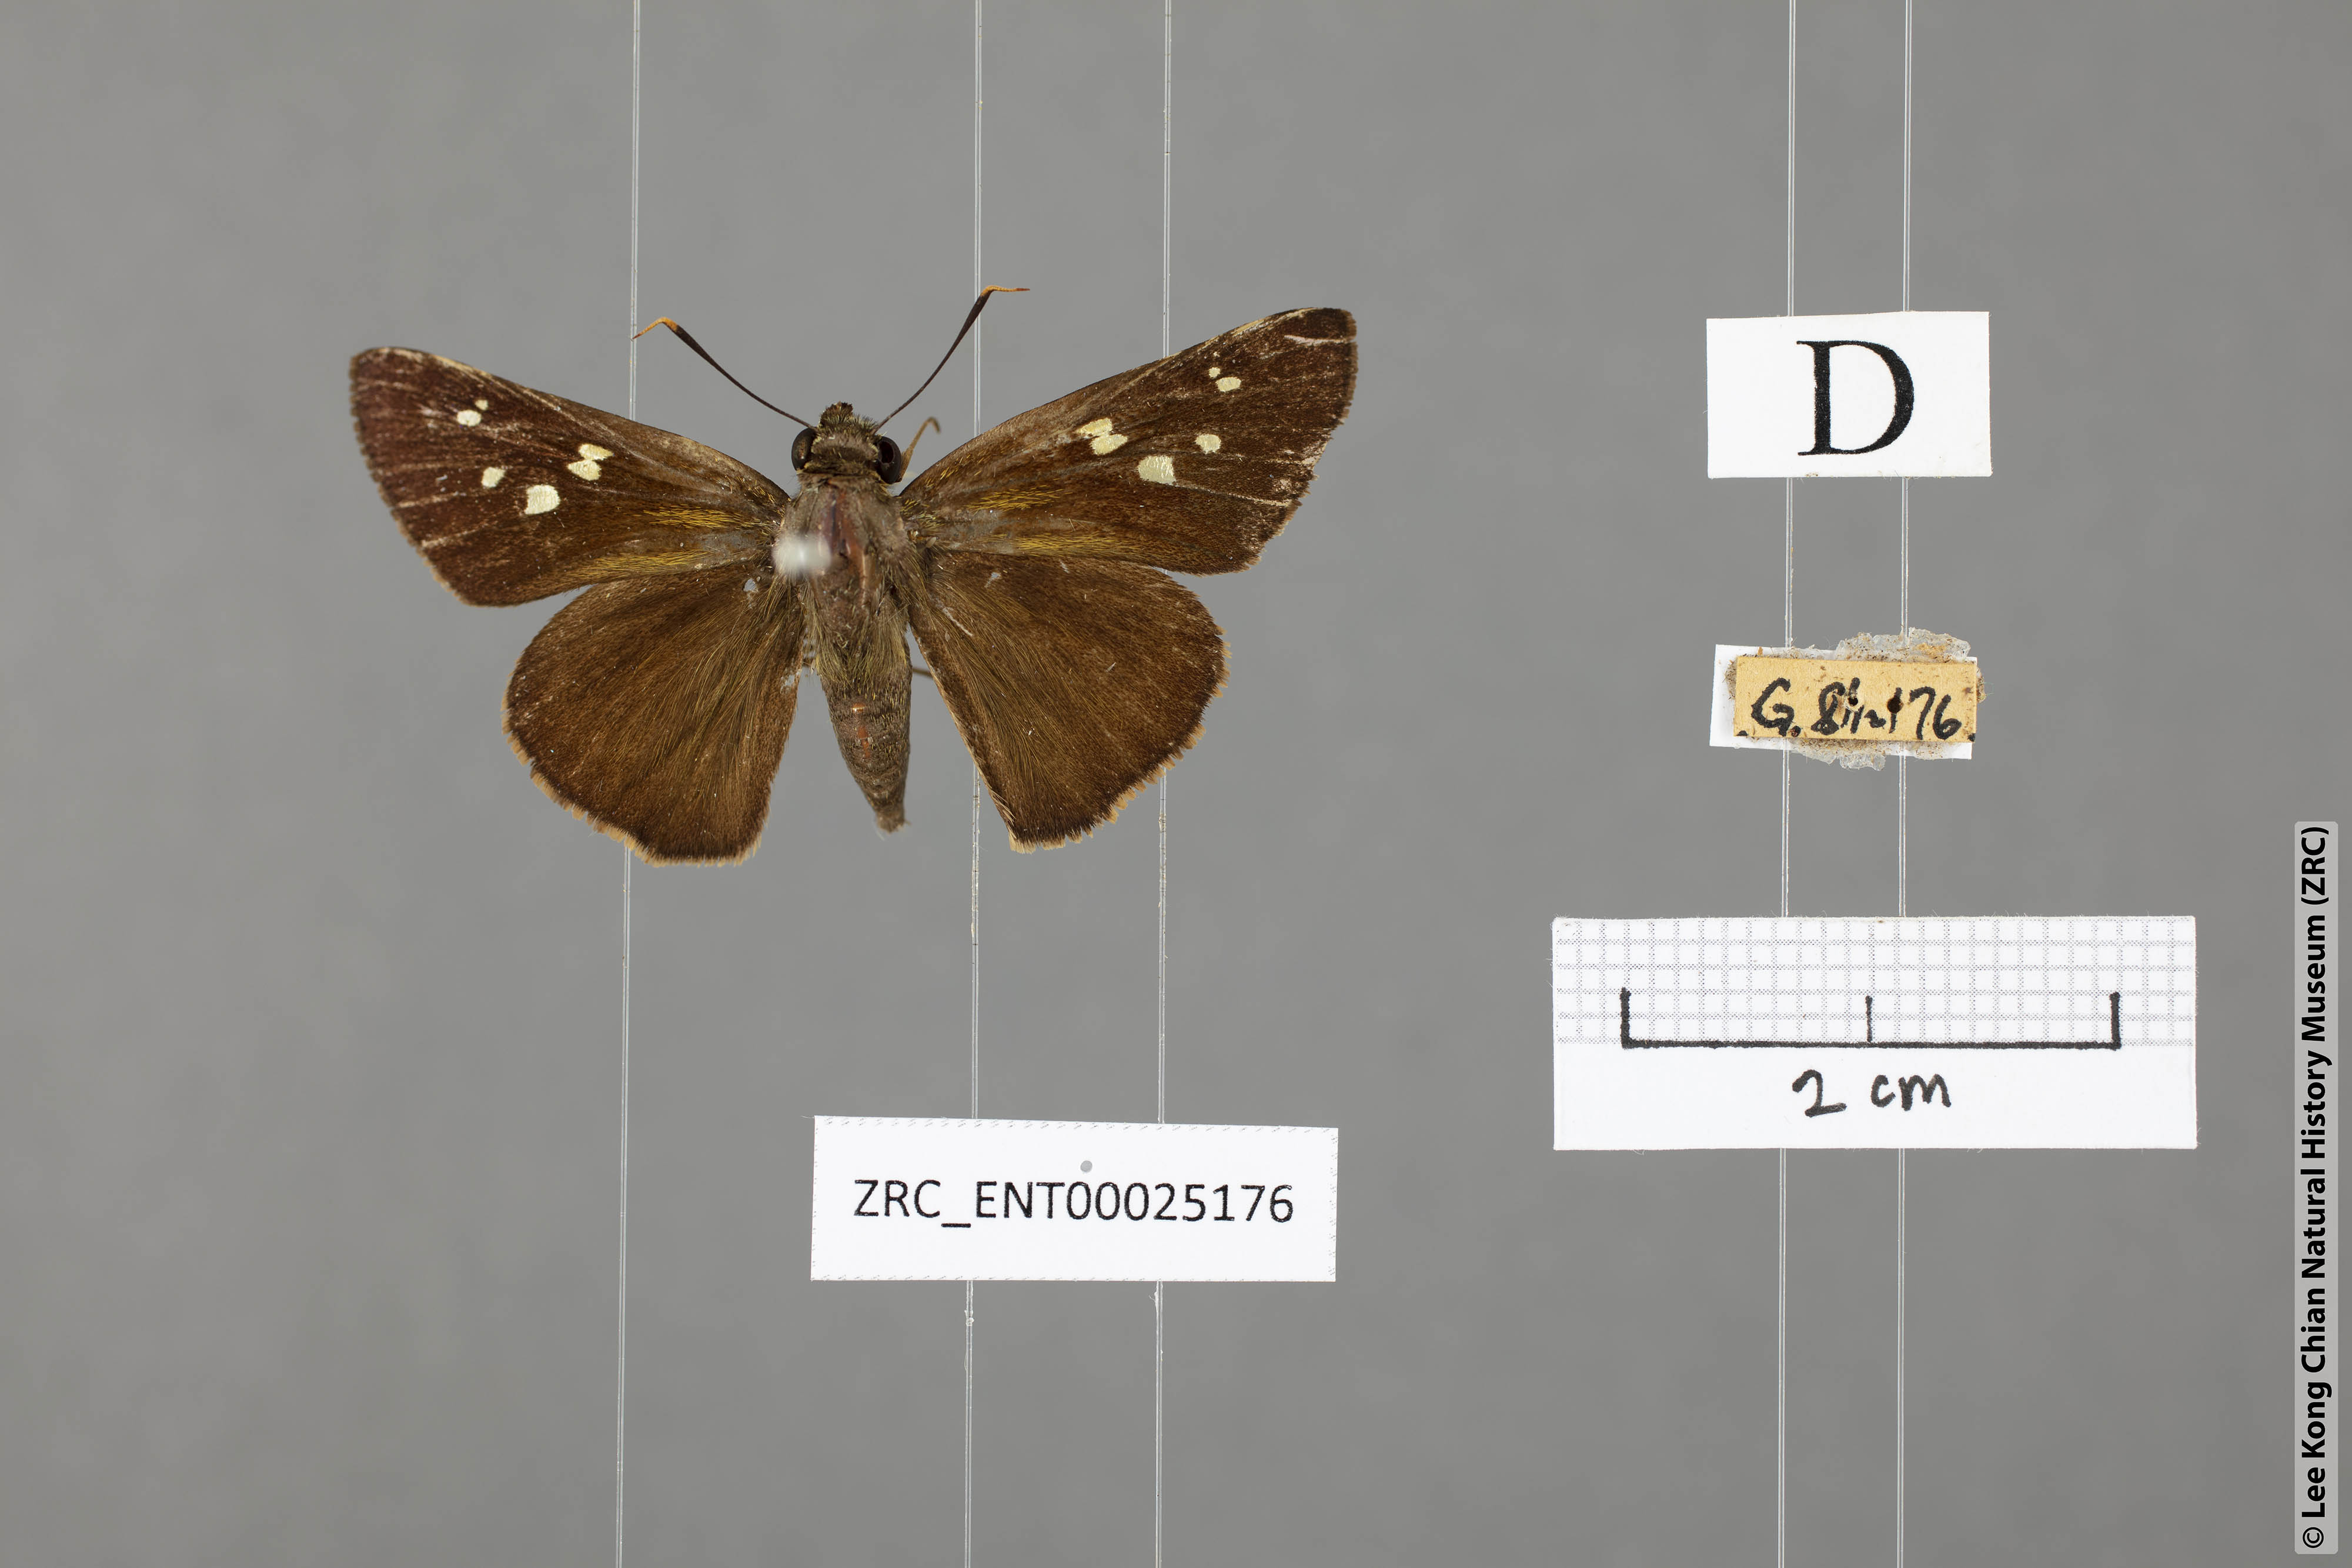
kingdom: Animalia
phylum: Arthropoda
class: Insecta
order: Lepidoptera
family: Hesperiidae
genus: Pithauria
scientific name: Pithauria marsena
